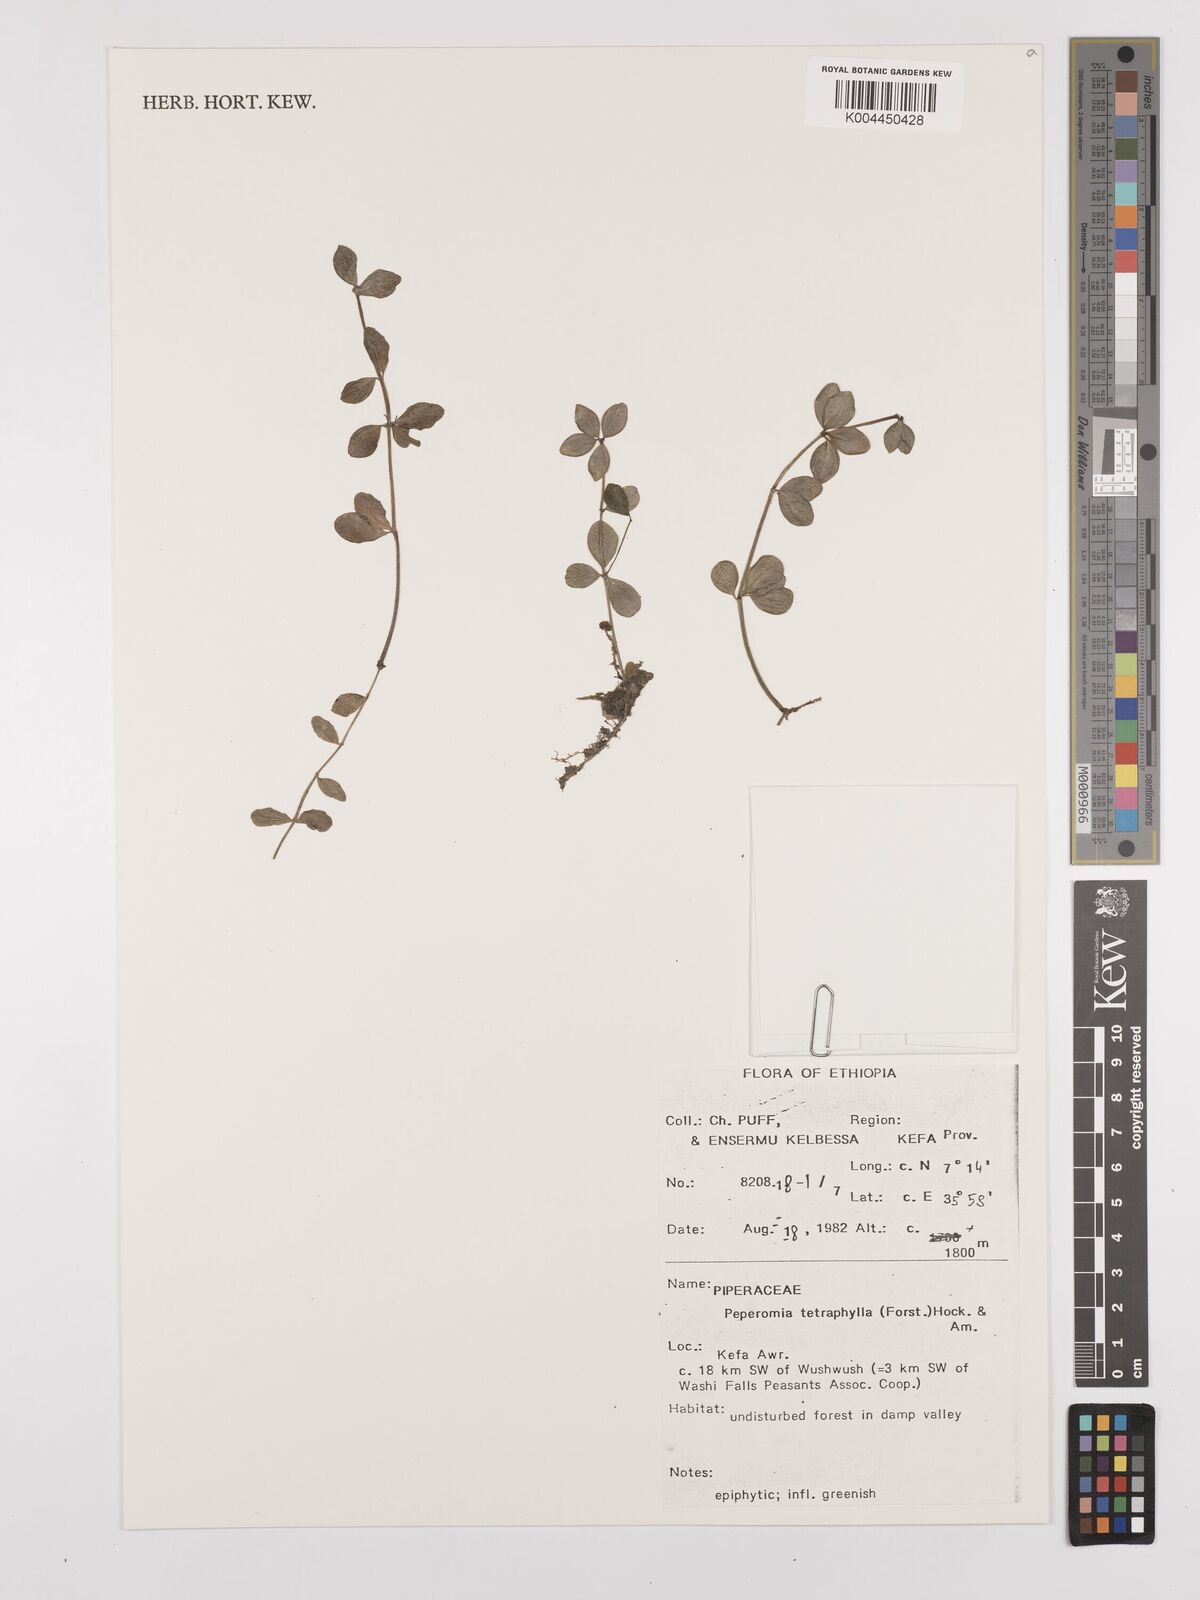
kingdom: Plantae
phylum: Tracheophyta
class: Magnoliopsida
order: Piperales
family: Piperaceae
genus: Peperomia
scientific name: Peperomia tetraphylla
